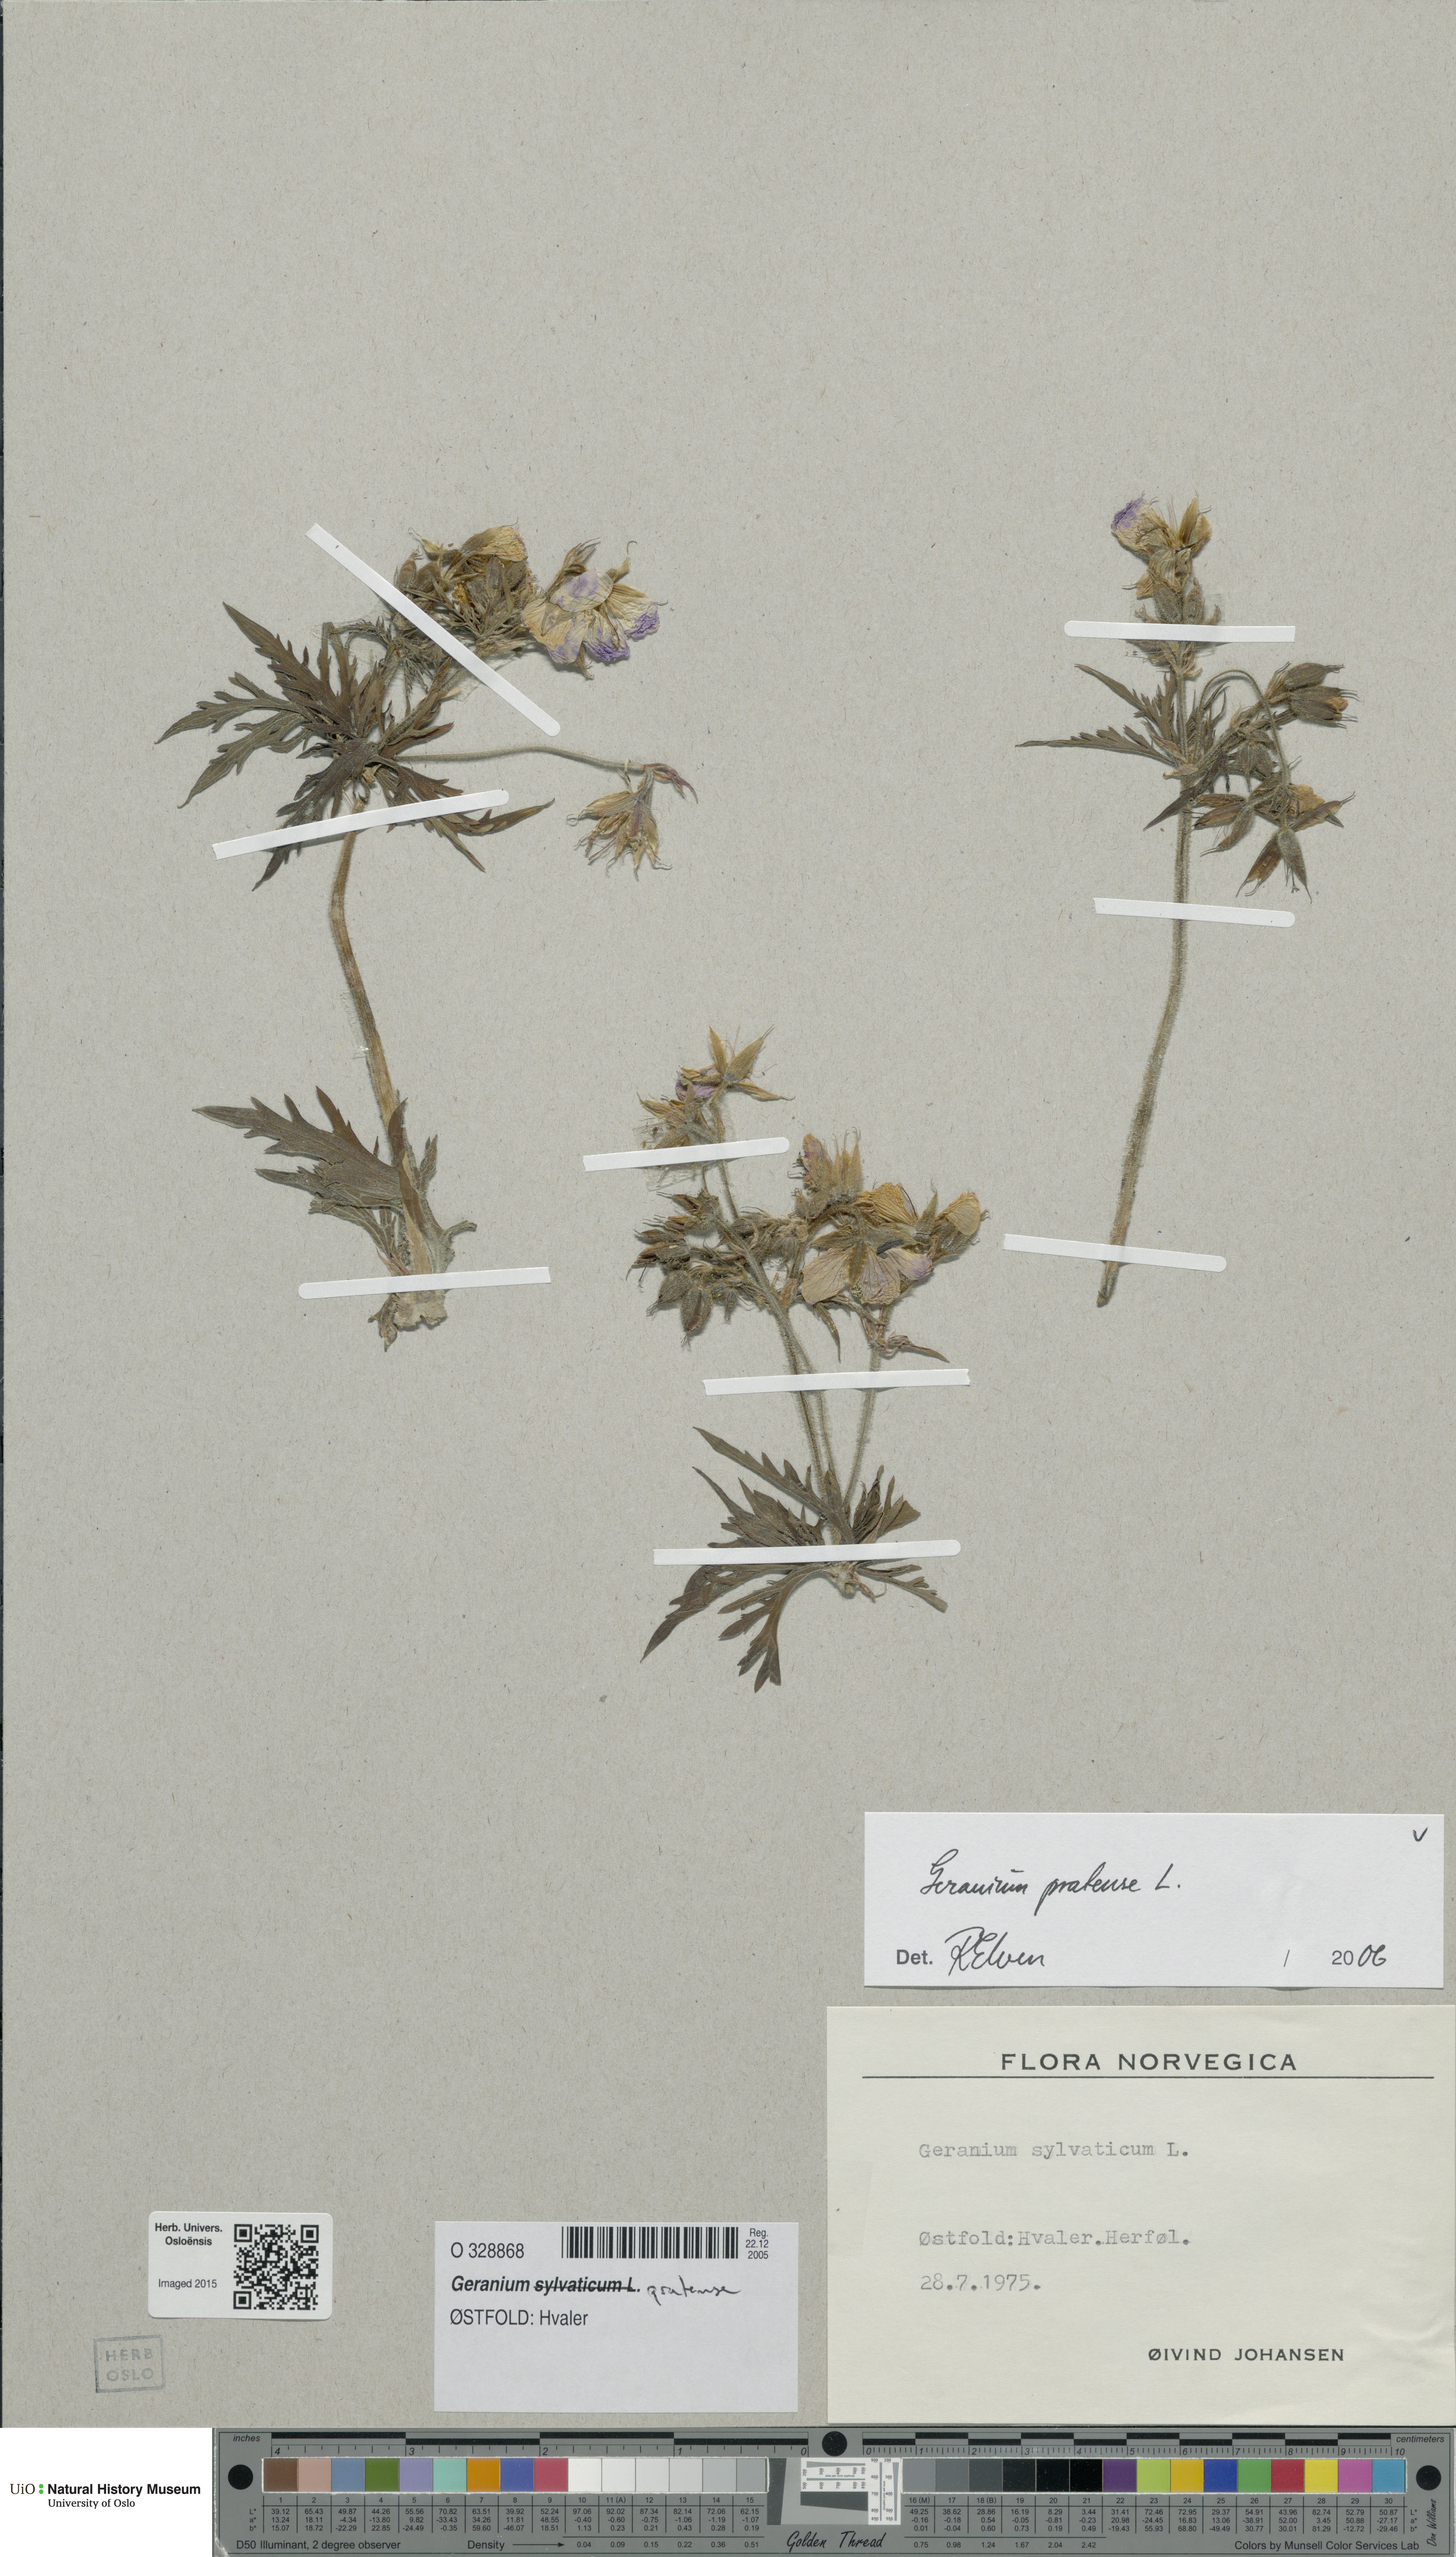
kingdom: Plantae
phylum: Tracheophyta
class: Magnoliopsida
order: Geraniales
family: Geraniaceae
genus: Geranium
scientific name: Geranium pratense
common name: Meadow crane's-bill
